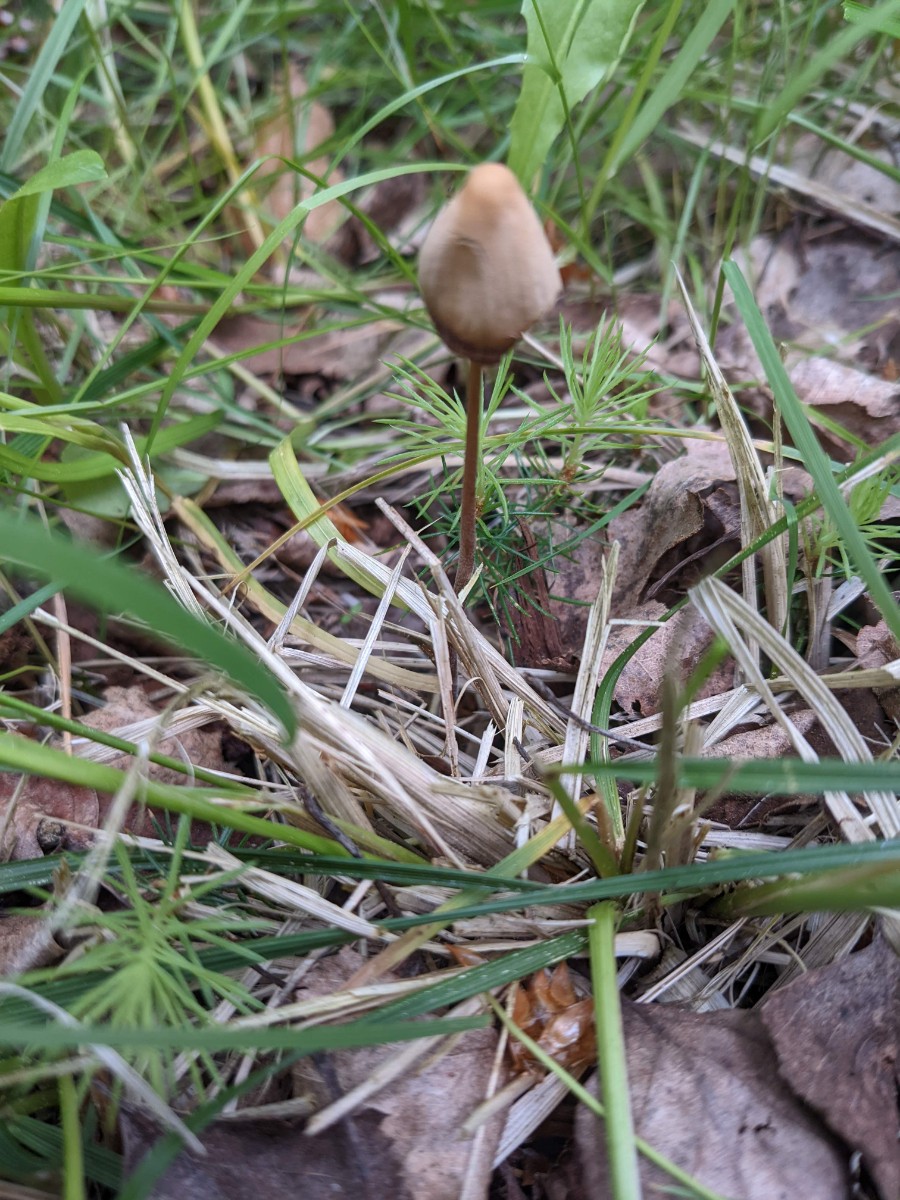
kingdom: Fungi
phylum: Basidiomycota
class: Agaricomycetes
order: Agaricales
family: Bolbitiaceae
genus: Conocybe
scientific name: Conocybe
